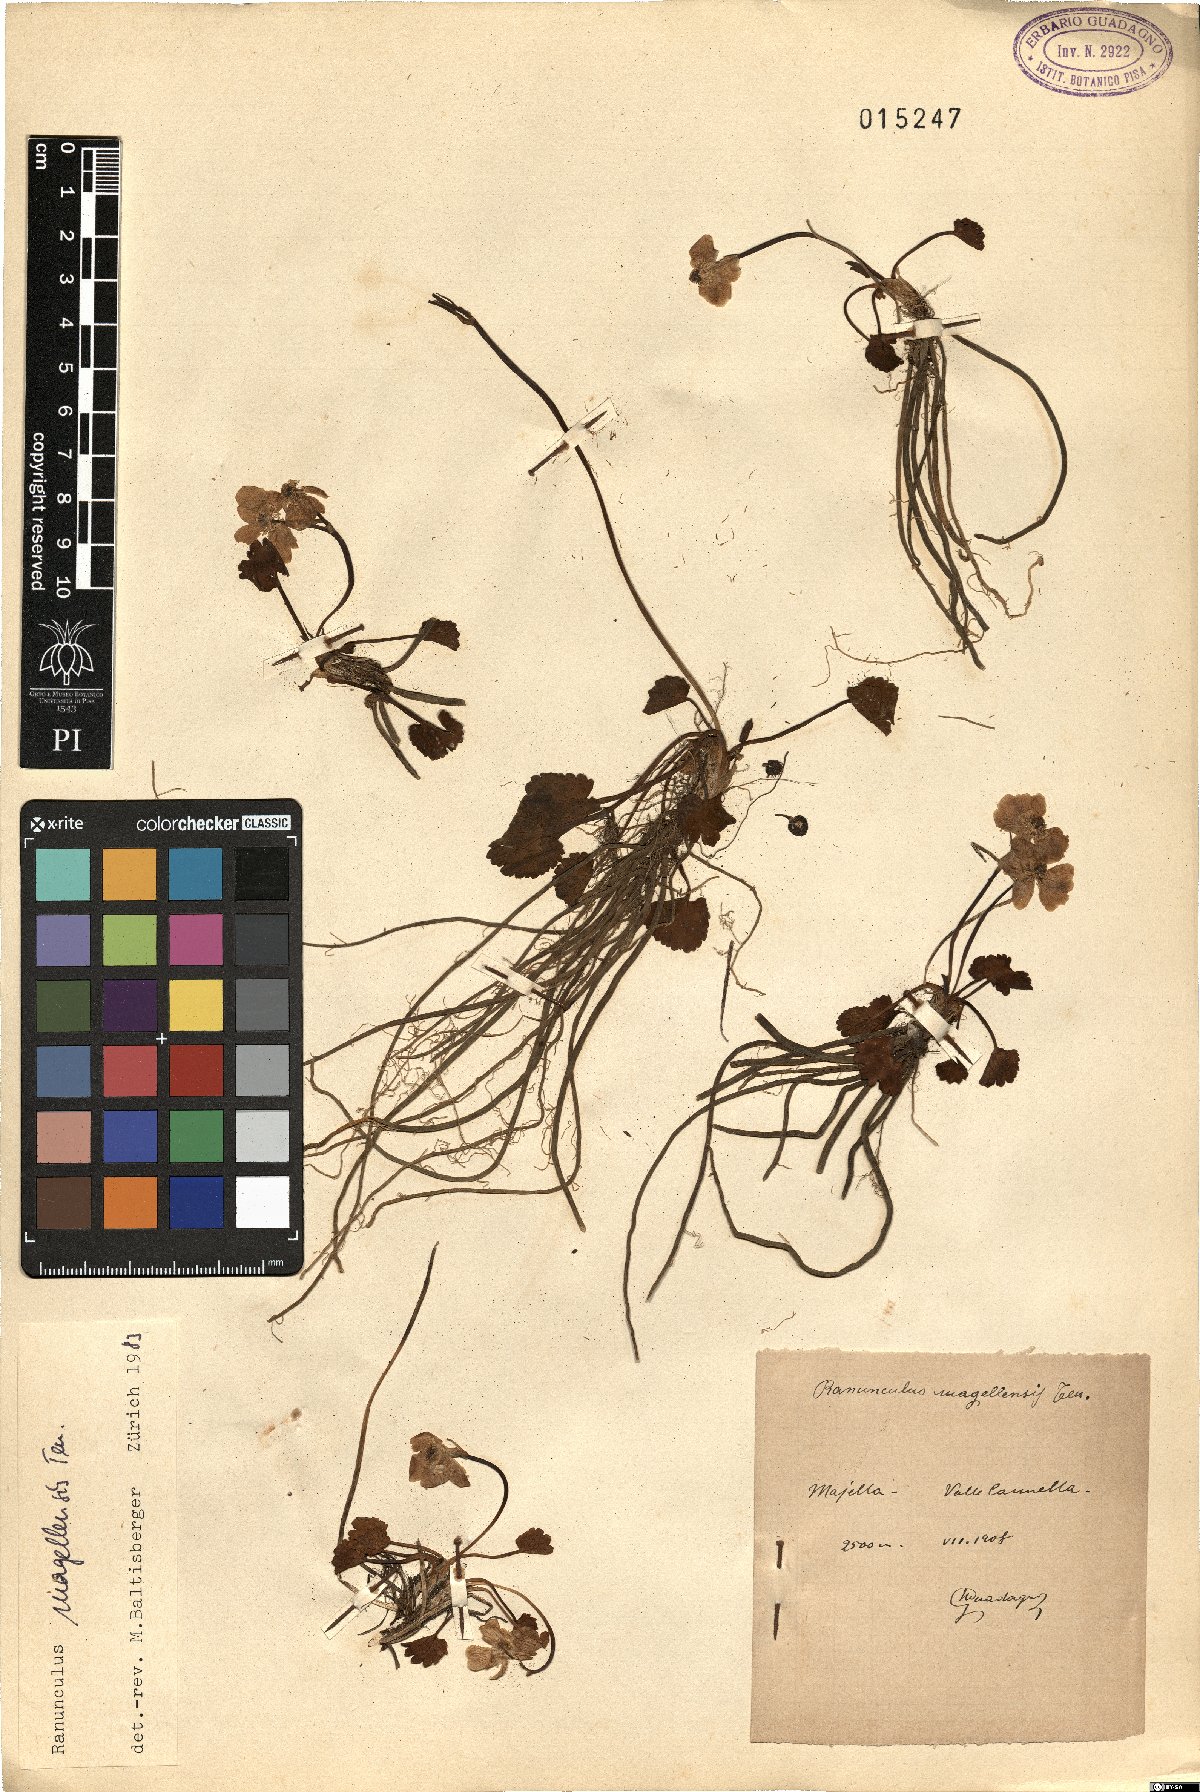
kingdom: Plantae
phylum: Tracheophyta
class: Magnoliopsida
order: Ranunculales
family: Ranunculaceae
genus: Ranunculus
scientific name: Ranunculus magellensis
